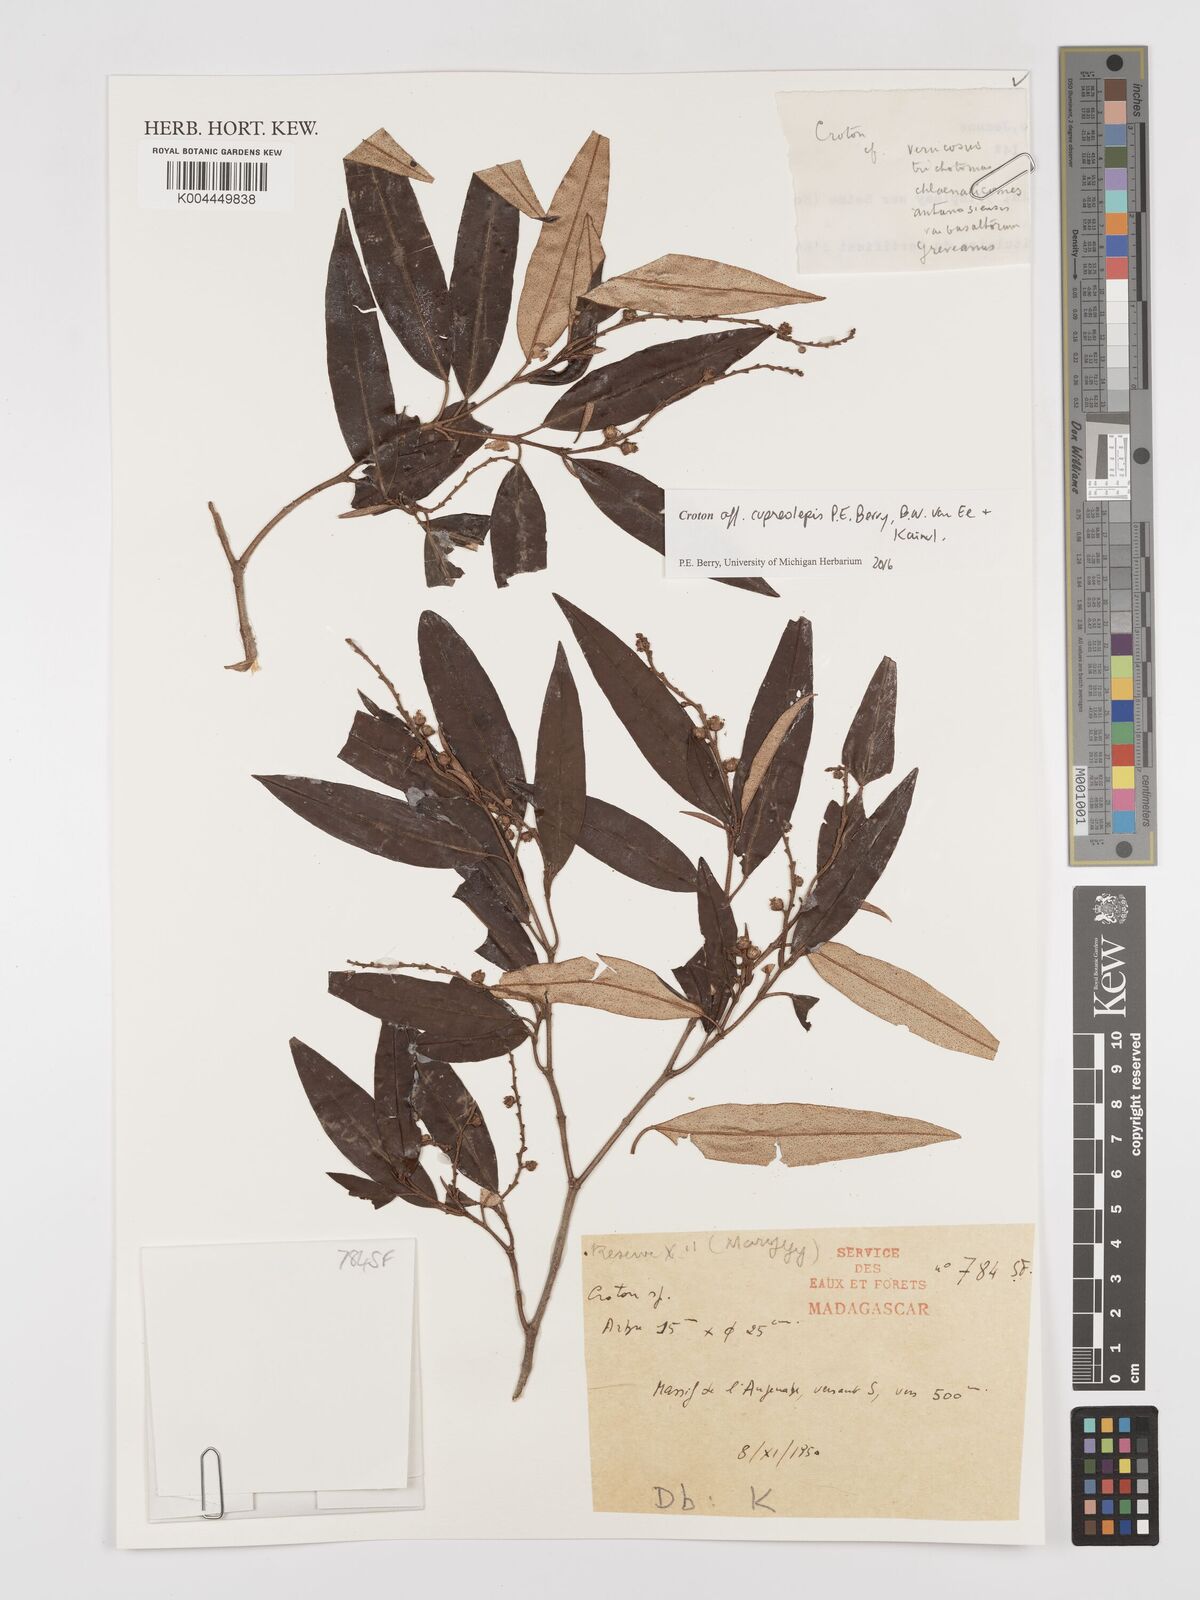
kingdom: Plantae
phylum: Tracheophyta
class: Magnoliopsida
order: Malpighiales
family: Euphorbiaceae
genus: Croton
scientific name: Croton cupreolepis
